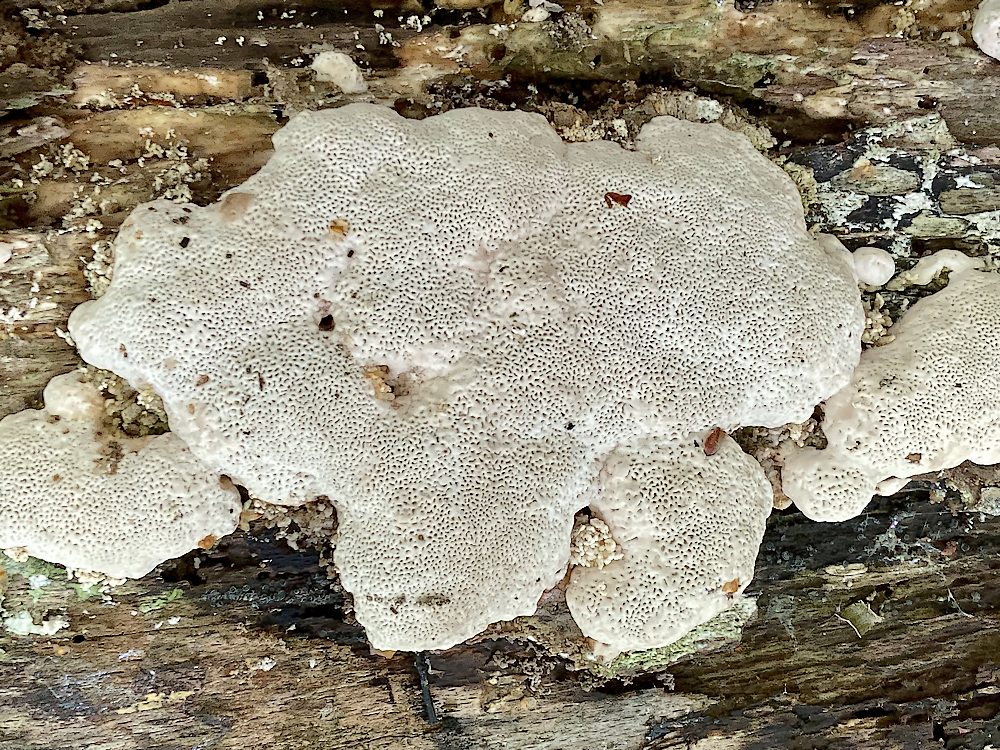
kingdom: Fungi
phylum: Basidiomycota
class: Agaricomycetes
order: Polyporales
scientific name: Polyporales
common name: poresvampordenen
